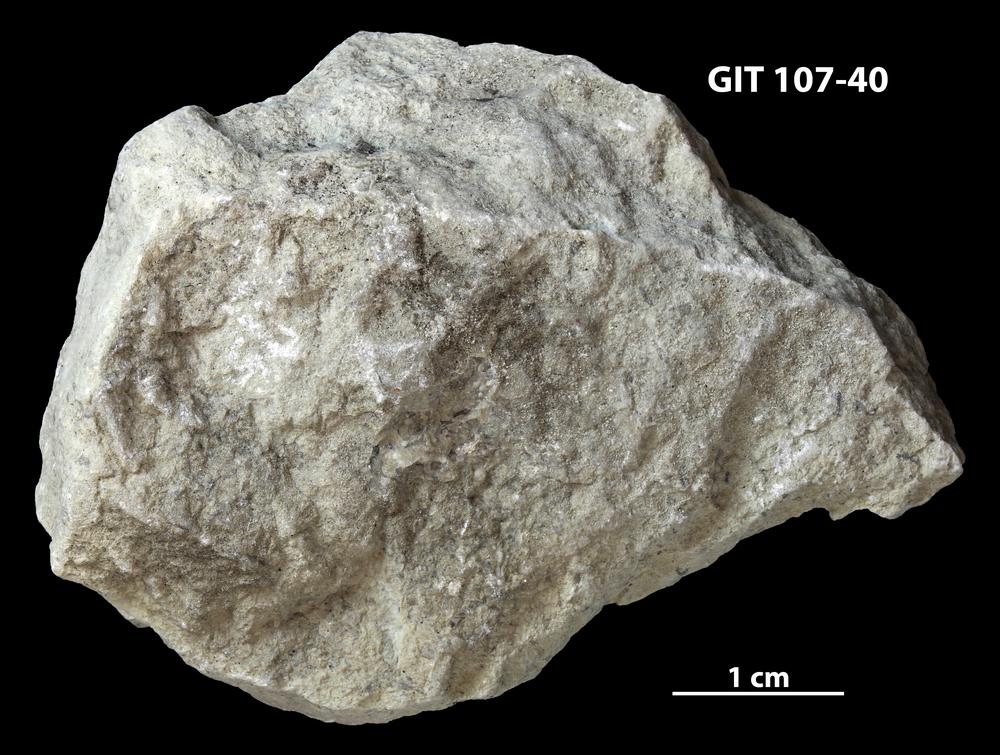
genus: Amphorichnus
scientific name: Amphorichnus
